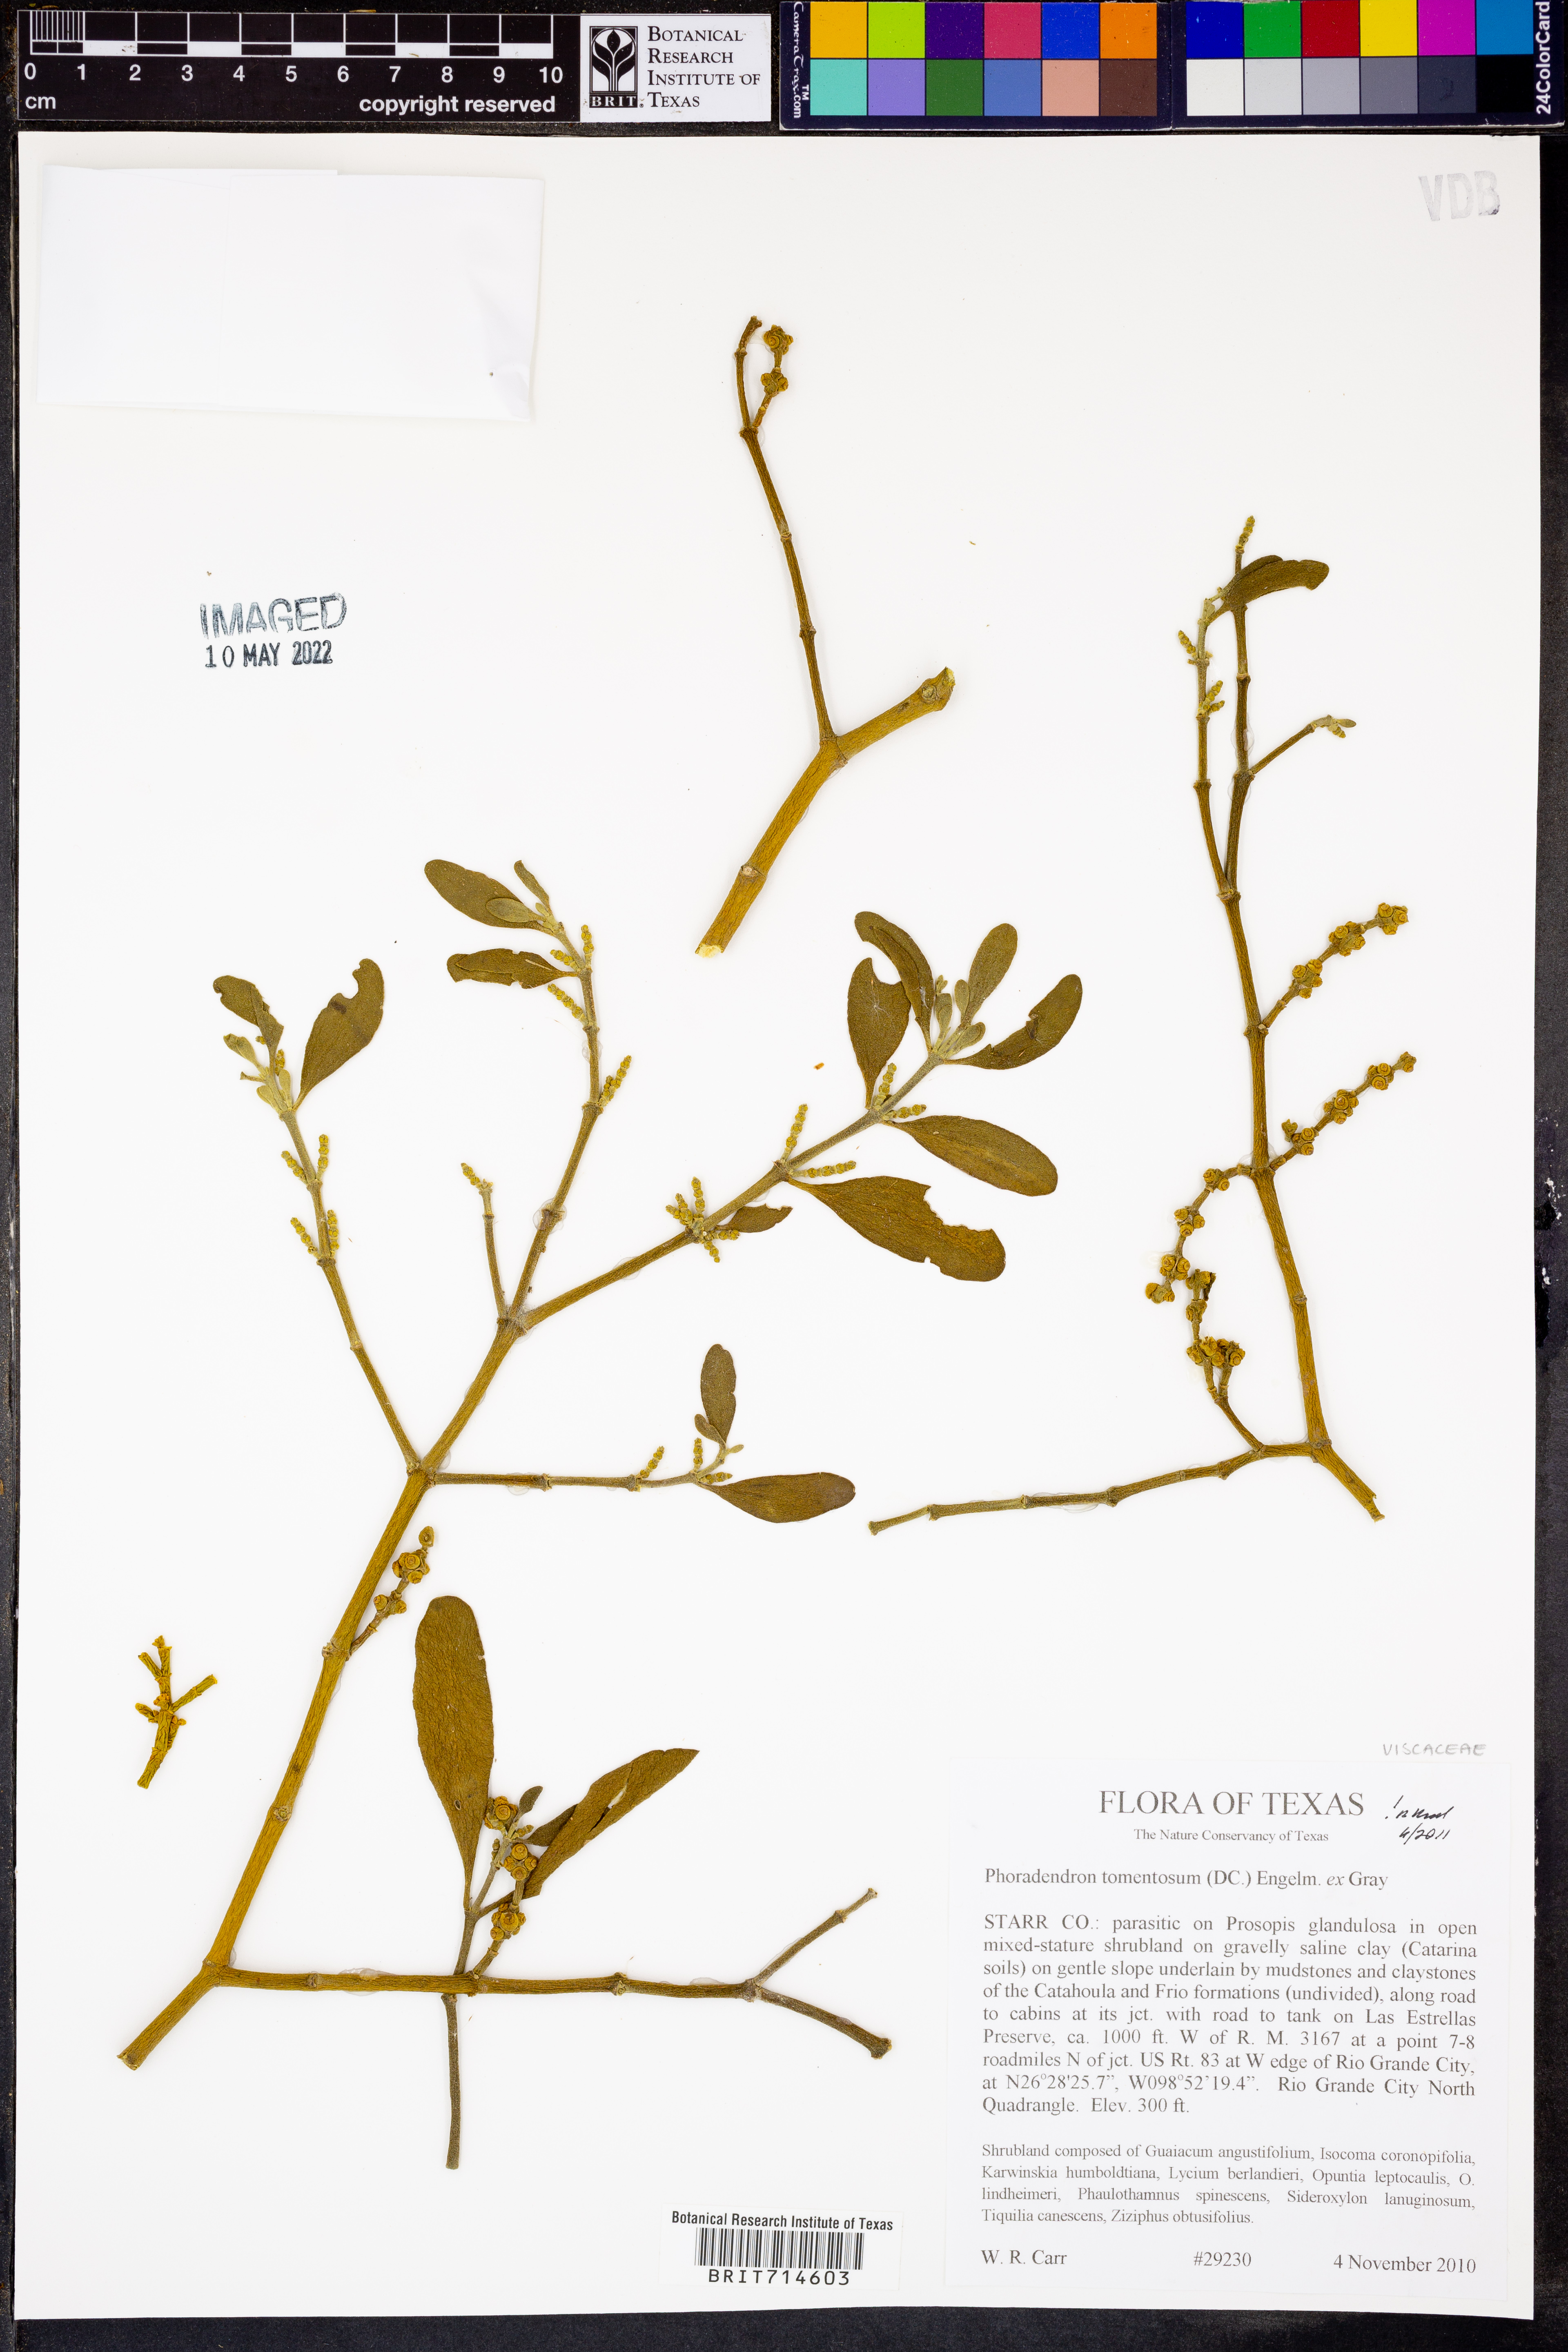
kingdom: Plantae
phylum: Tracheophyta
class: Magnoliopsida
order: Santalales
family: Viscaceae
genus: Phoradendron
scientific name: Phoradendron leucarpum
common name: Pacific mistletoe
